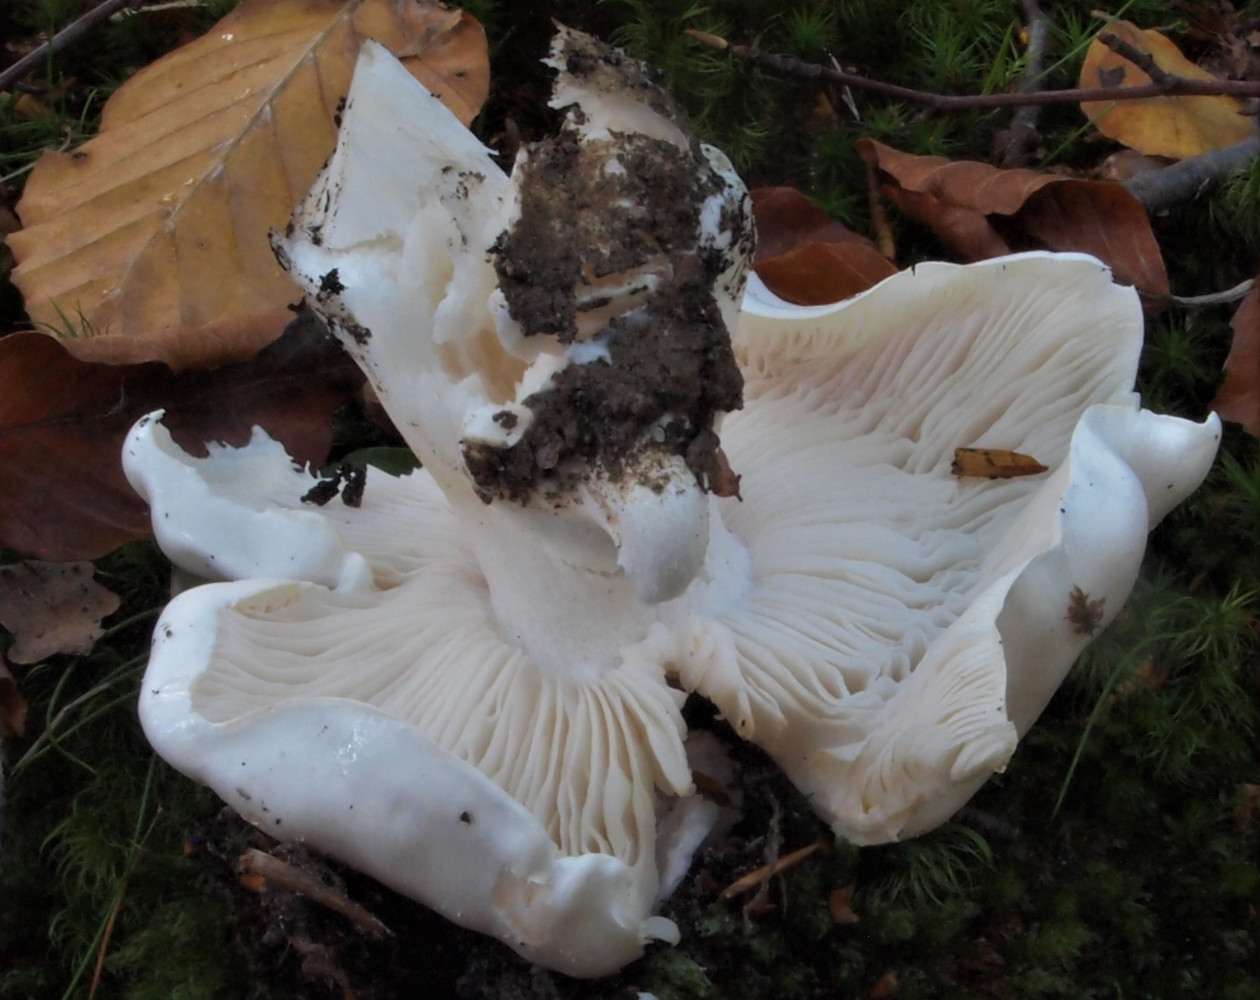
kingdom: Fungi
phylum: Basidiomycota
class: Agaricomycetes
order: Agaricales
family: Tricholomataceae
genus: Tricholoma
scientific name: Tricholoma columbetta
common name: silke-ridderhat
